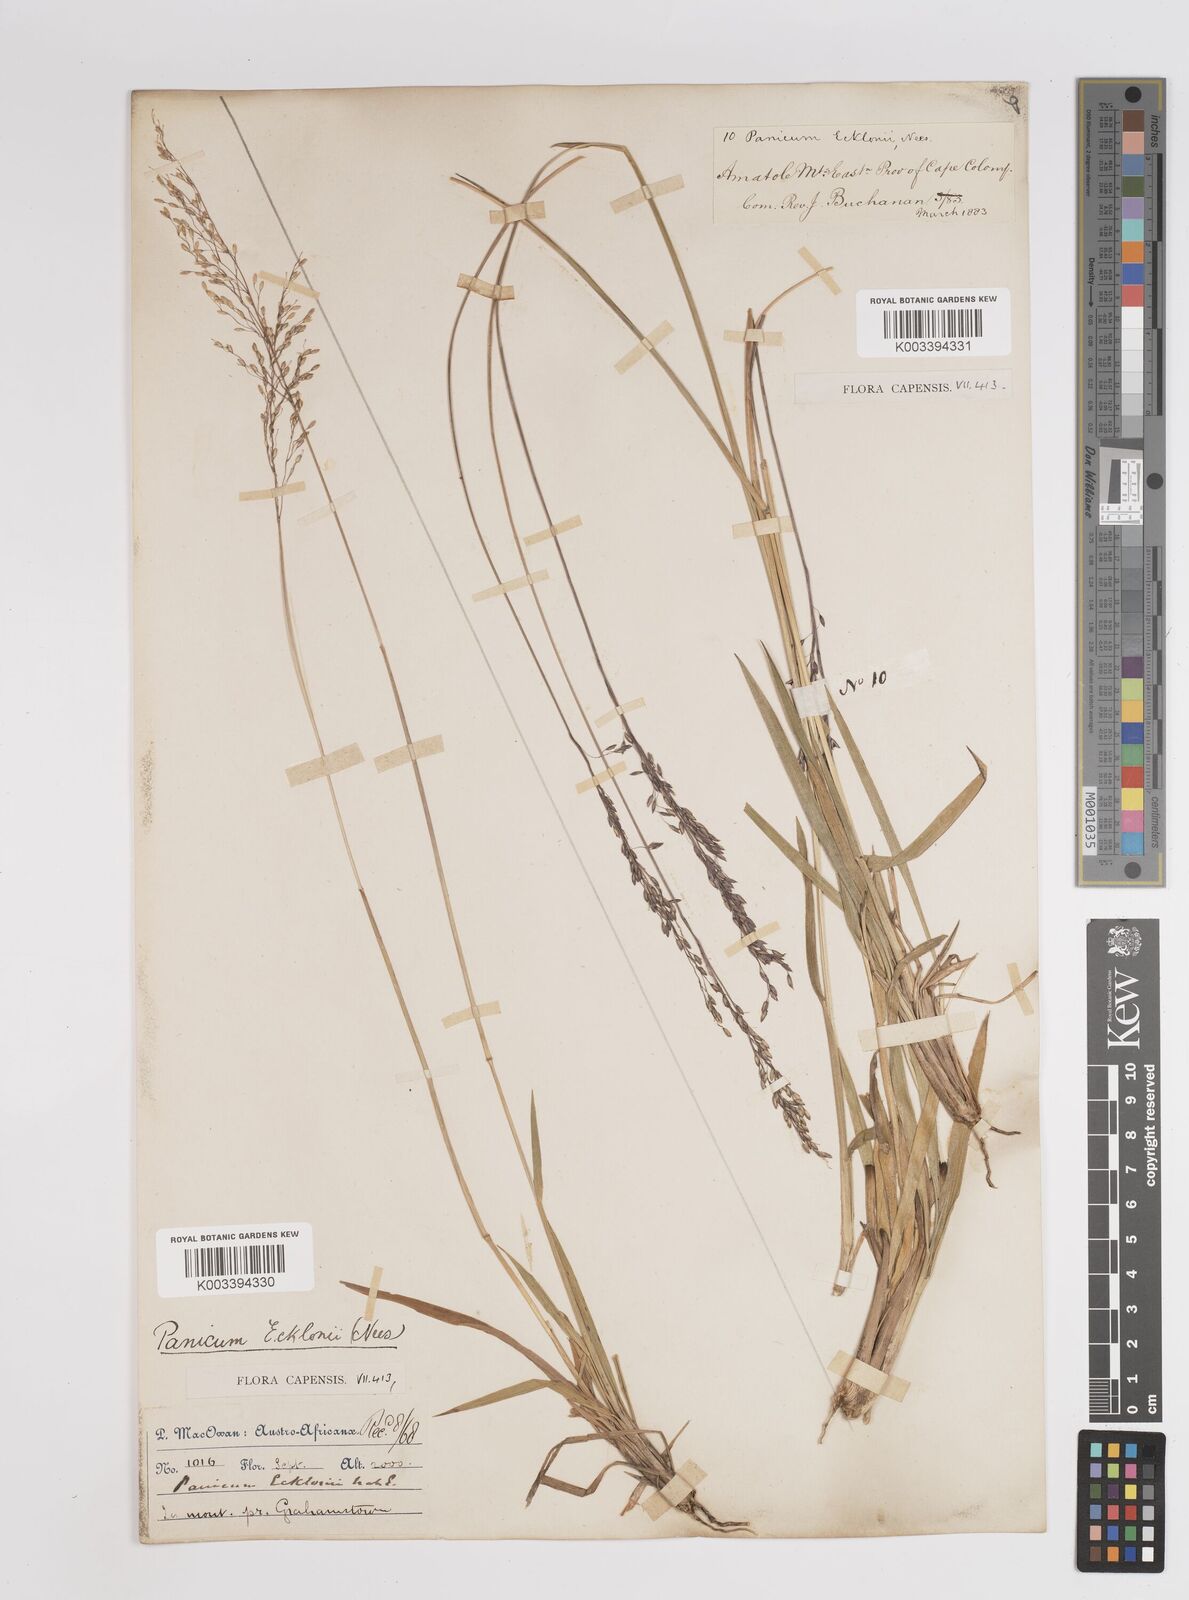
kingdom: Plantae
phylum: Tracheophyta
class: Liliopsida
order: Poales
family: Poaceae
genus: Adenochloa
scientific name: Adenochloa ecklonii
